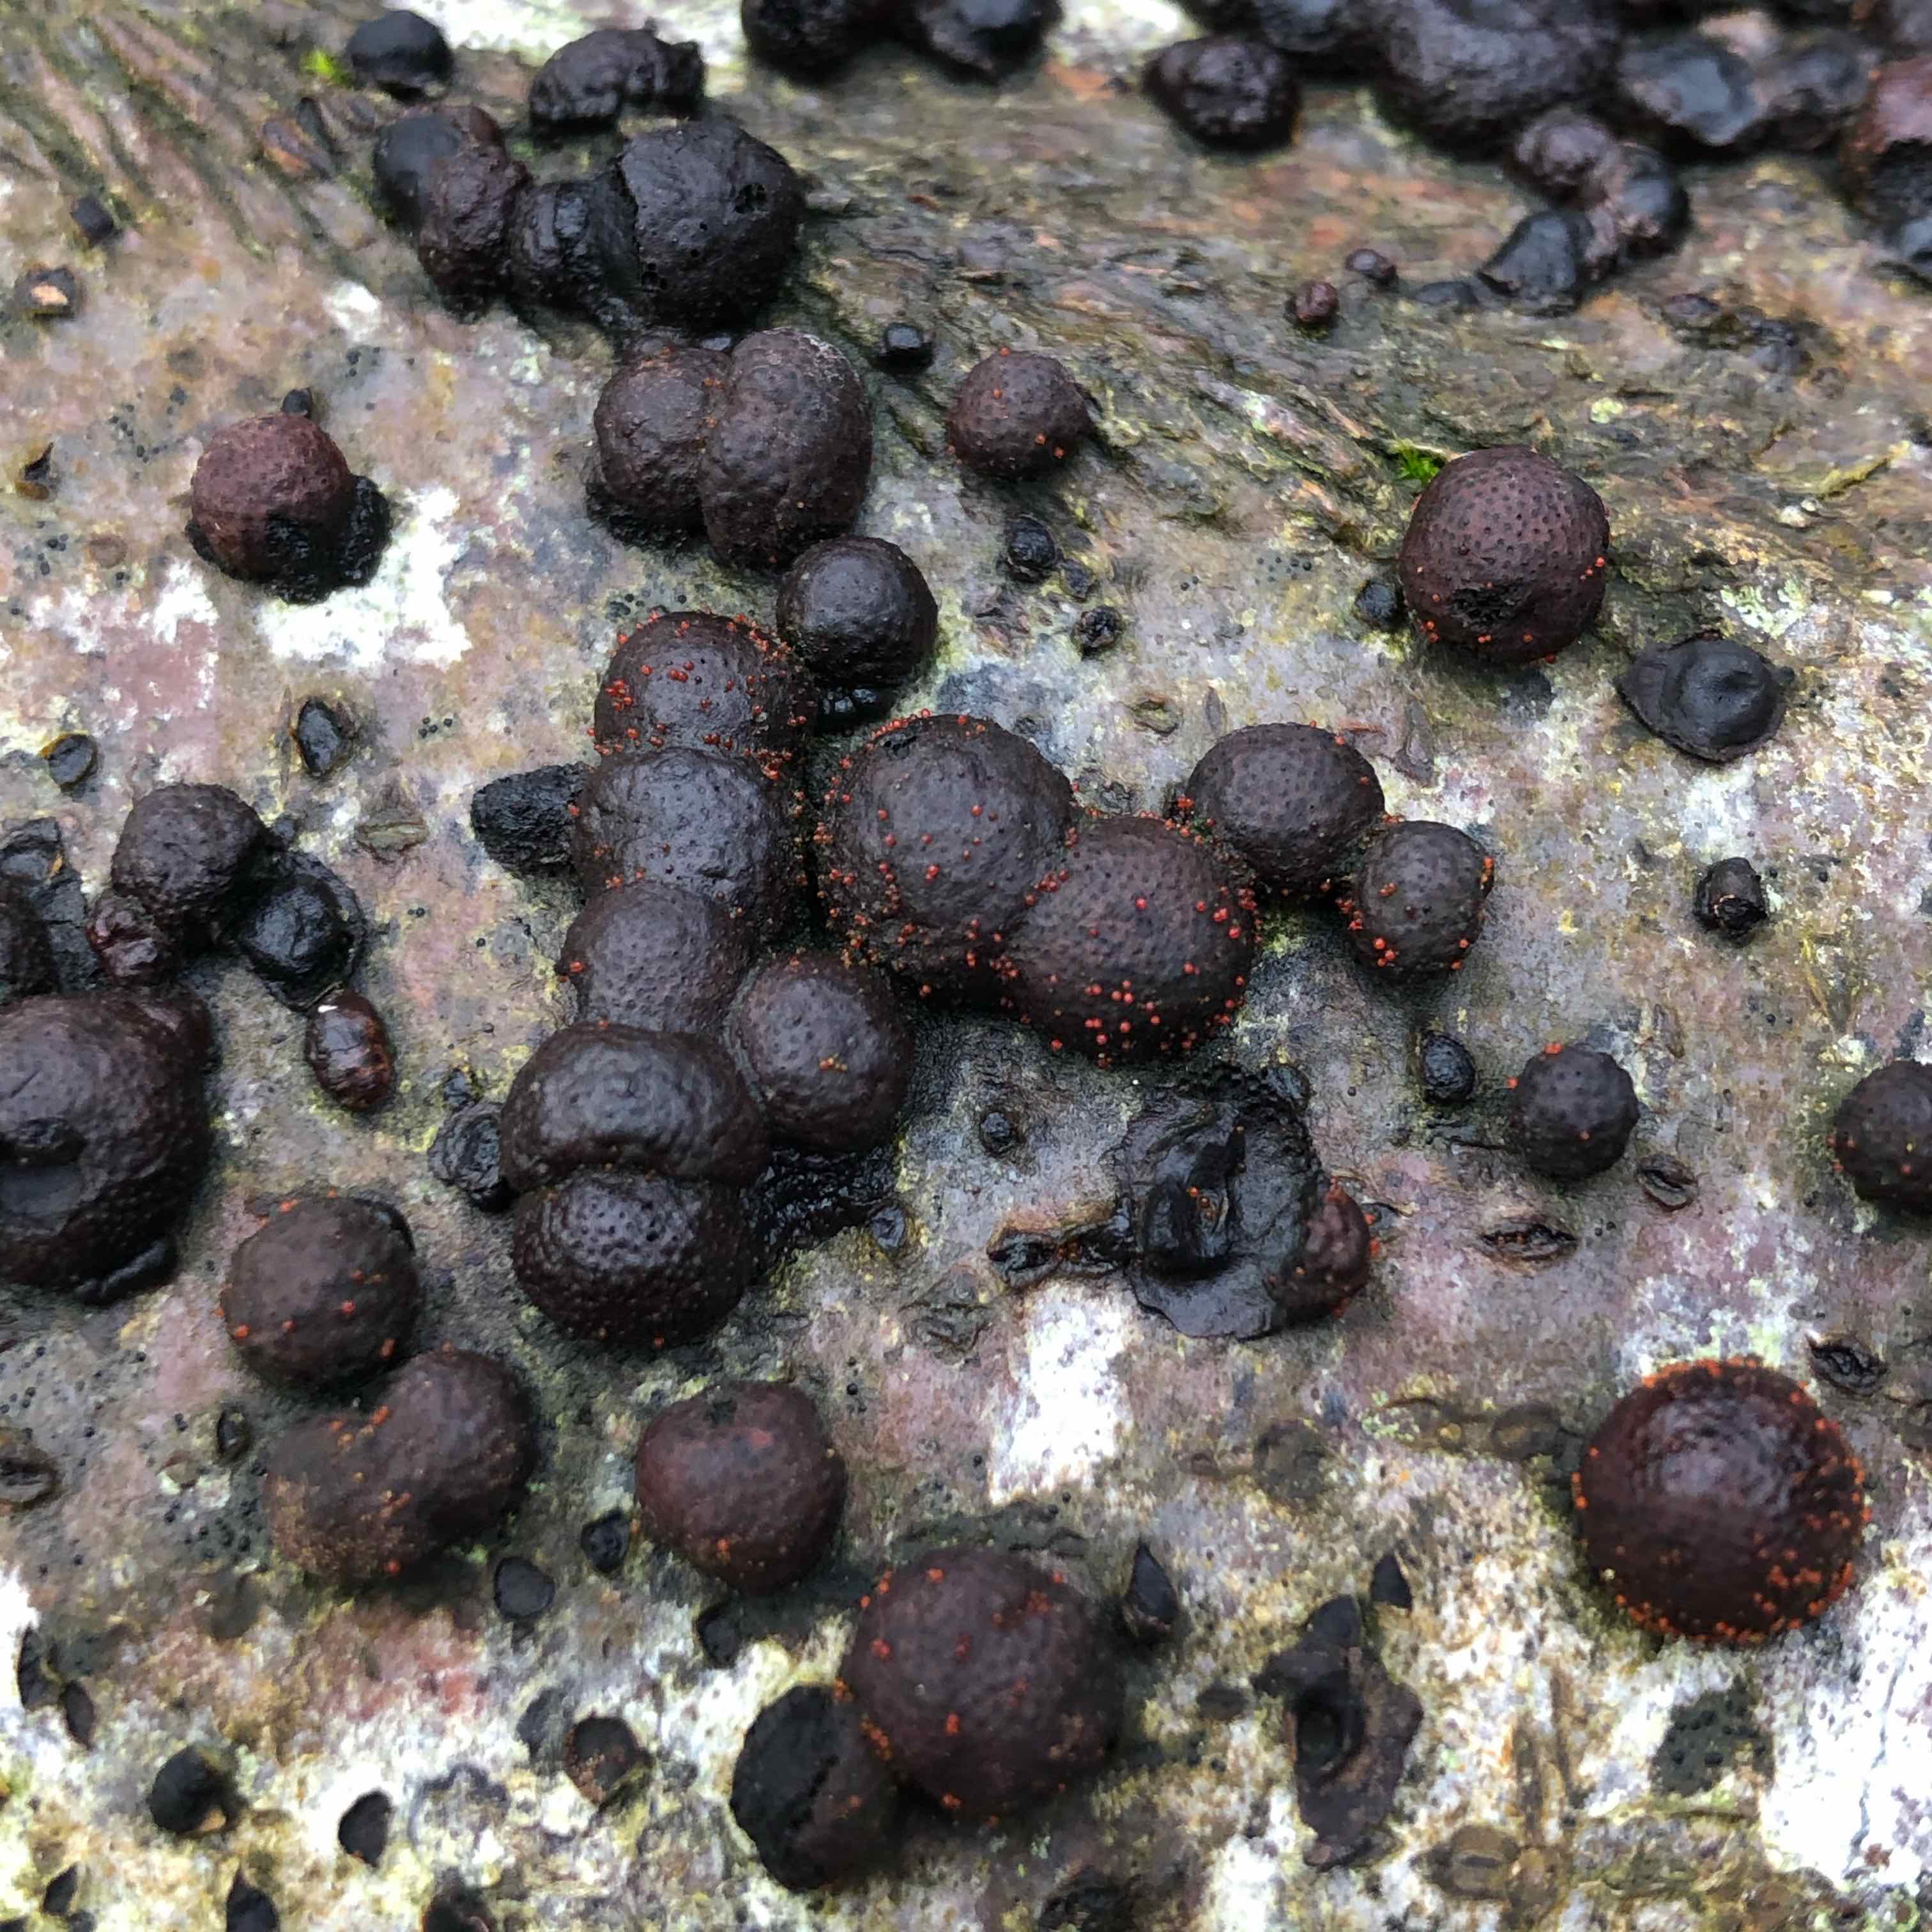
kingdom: Fungi
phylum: Ascomycota
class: Sordariomycetes
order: Hypocreales
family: Nectriaceae
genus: Cosmospora
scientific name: Cosmospora arxii
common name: kuljordbær-cinnobersvamp
